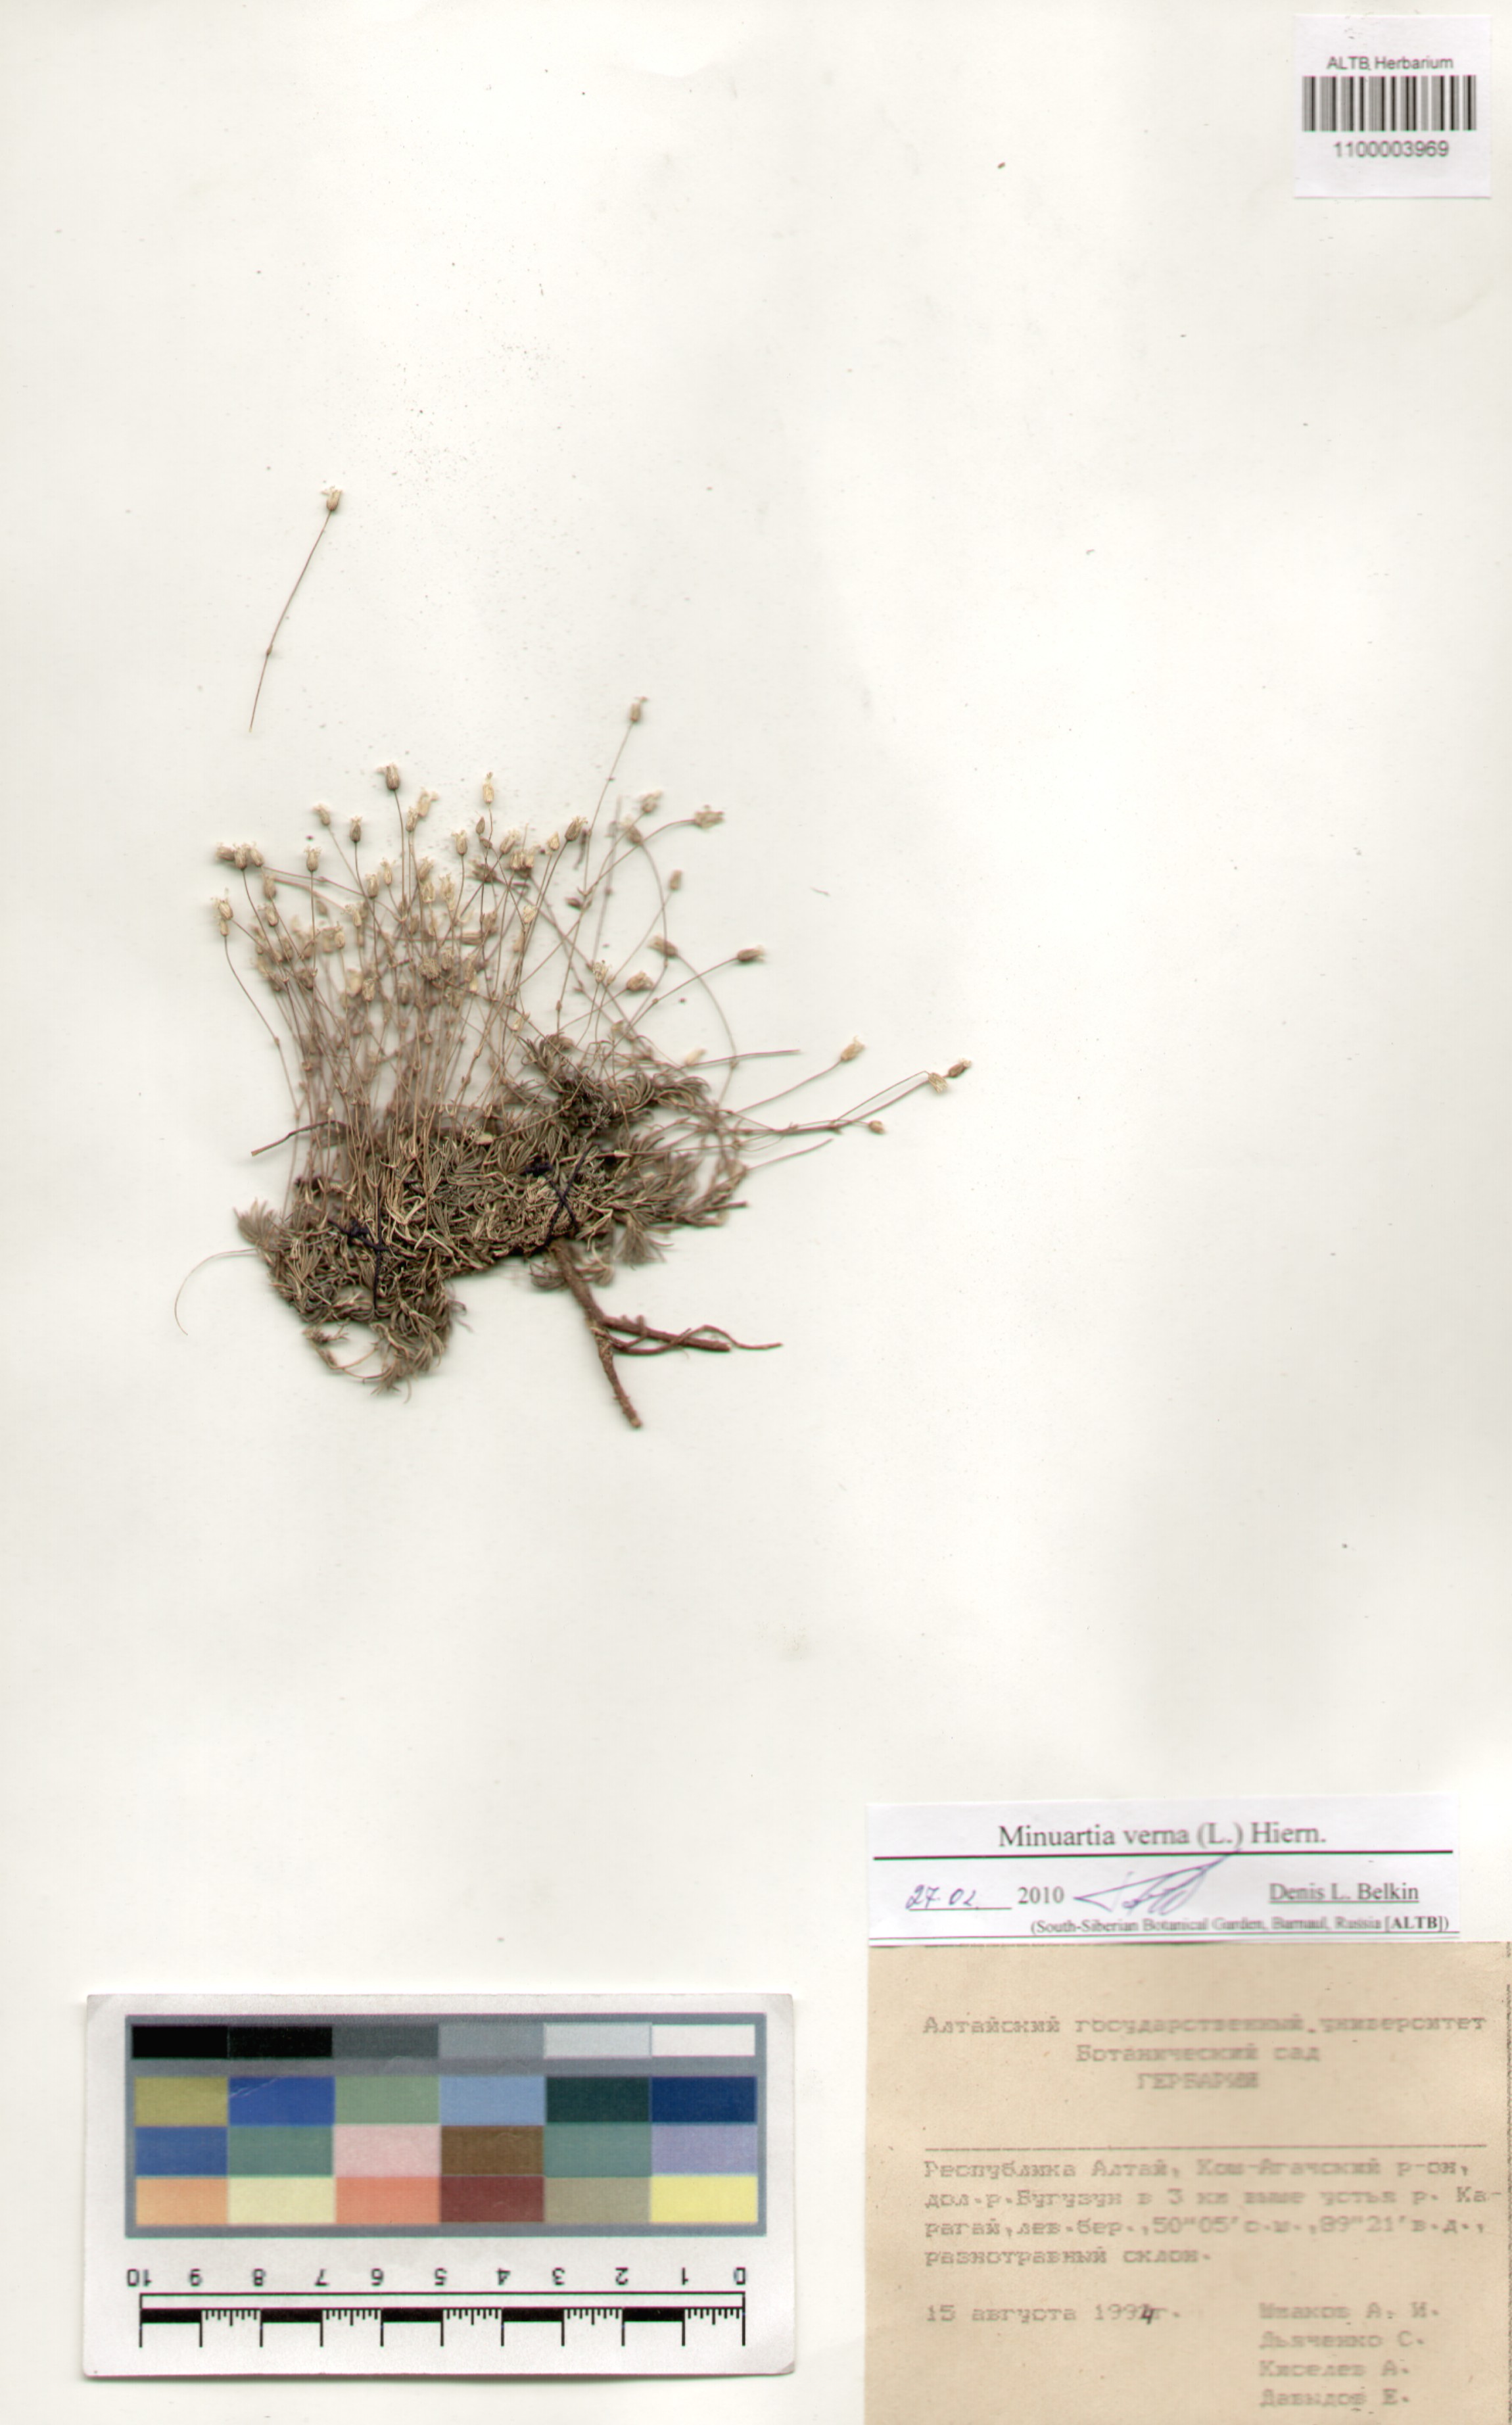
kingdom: Plantae
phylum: Tracheophyta
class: Magnoliopsida
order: Caryophyllales
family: Caryophyllaceae
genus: Sabulina
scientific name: Sabulina verna
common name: Spring sandwort
